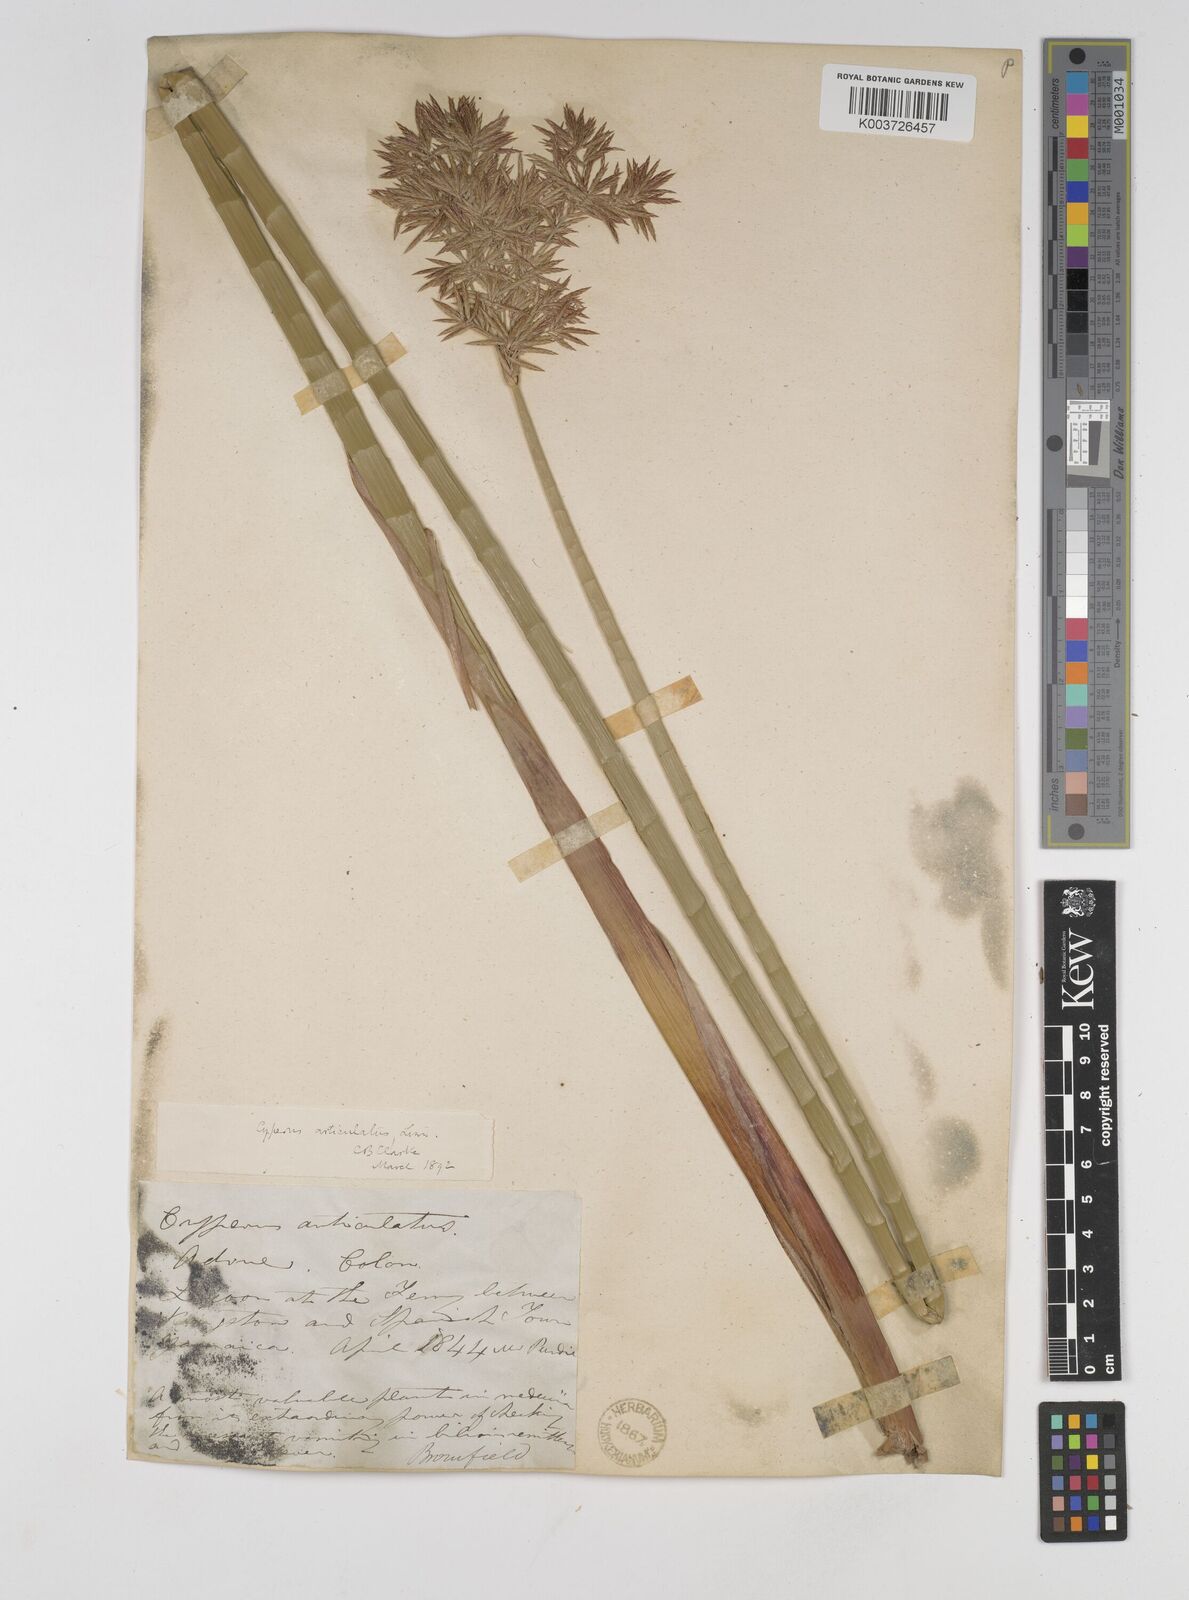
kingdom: Plantae
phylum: Tracheophyta
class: Liliopsida
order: Poales
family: Cyperaceae
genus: Cyperus
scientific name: Cyperus articulatus
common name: Jointed flatsedge
